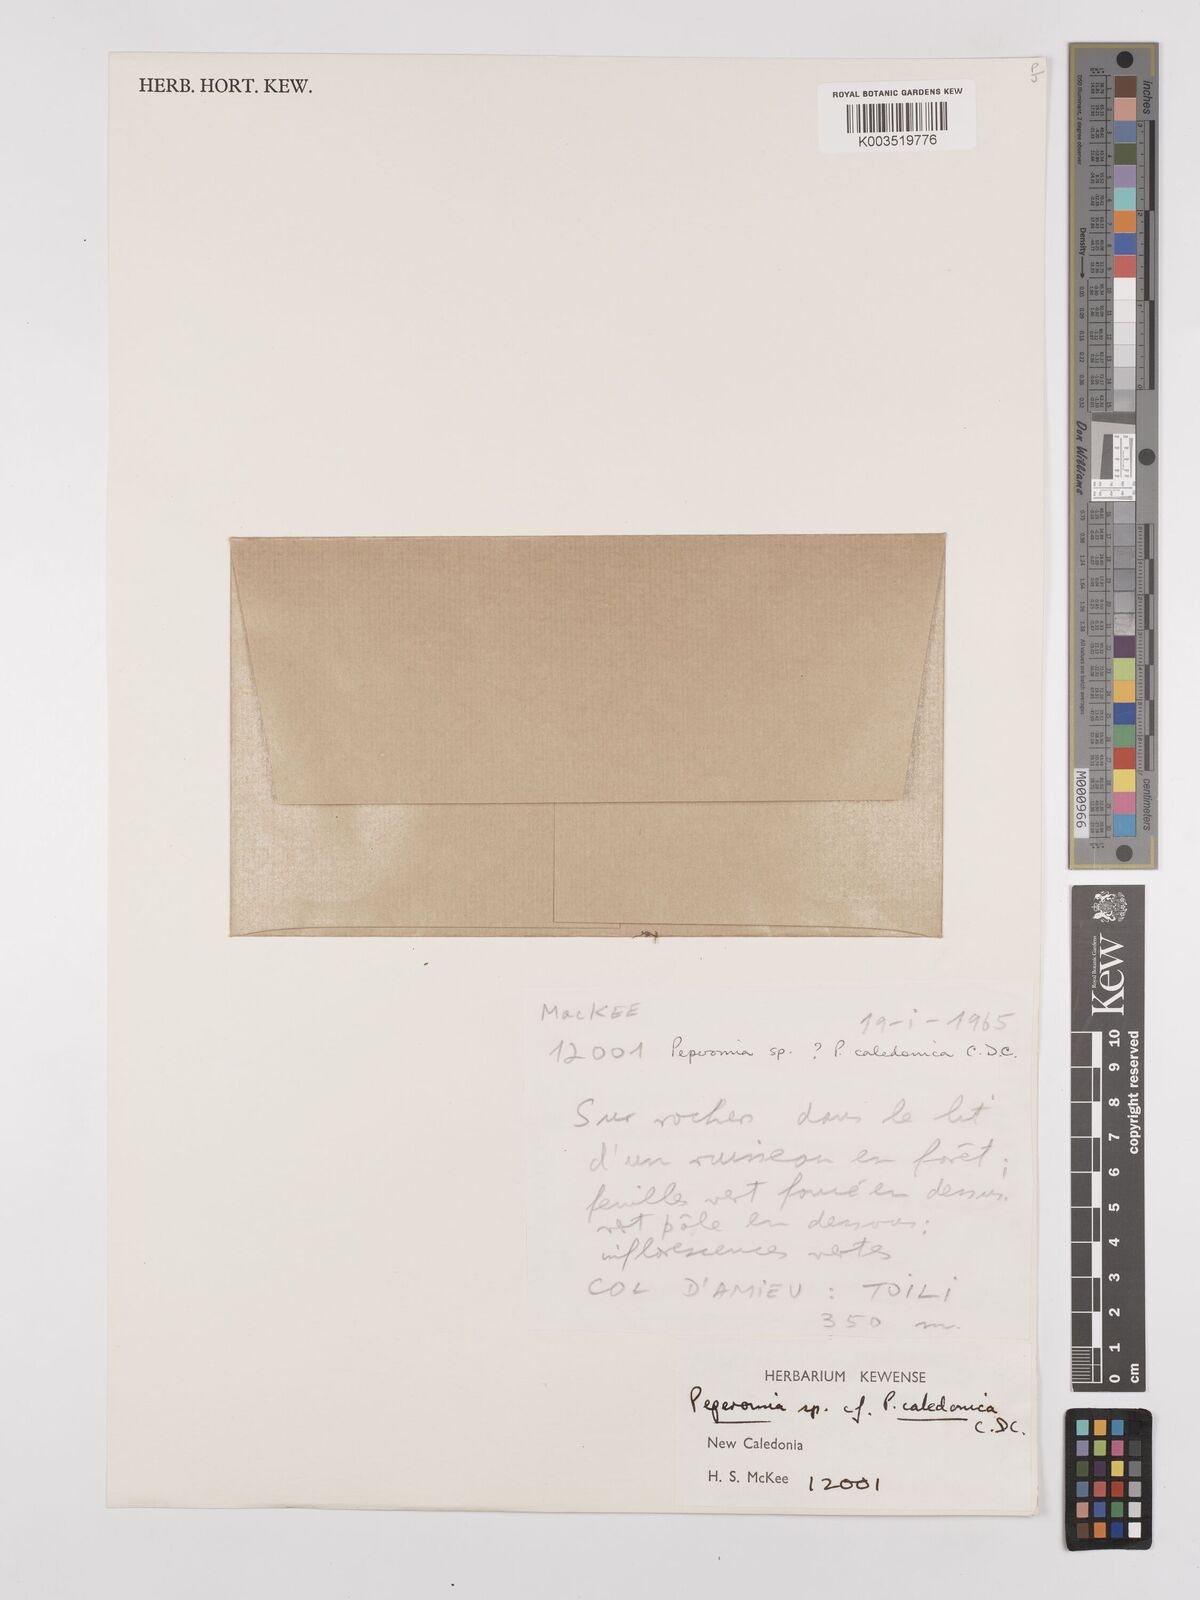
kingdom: Plantae
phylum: Tracheophyta
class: Magnoliopsida
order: Piperales
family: Piperaceae
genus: Peperomia
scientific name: Peperomia caledonica
